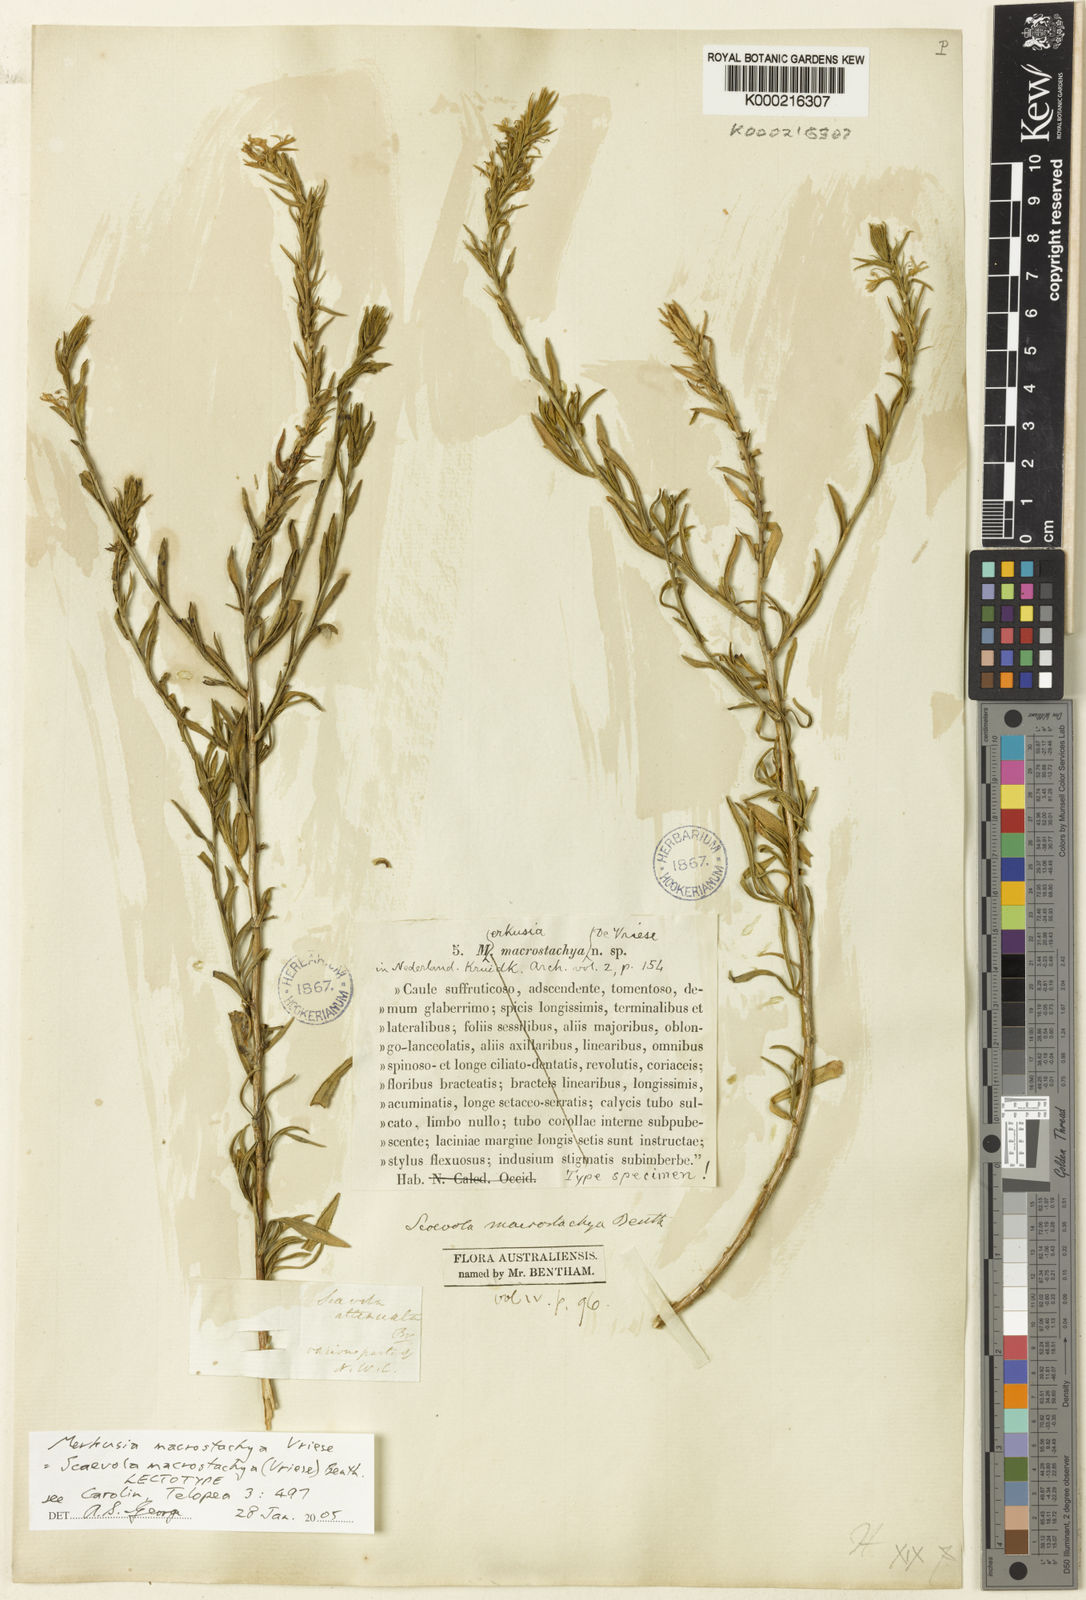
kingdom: Plantae
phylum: Tracheophyta
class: Magnoliopsida
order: Asterales
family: Goodeniaceae
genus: Scaevola
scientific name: Scaevola macrostachya
